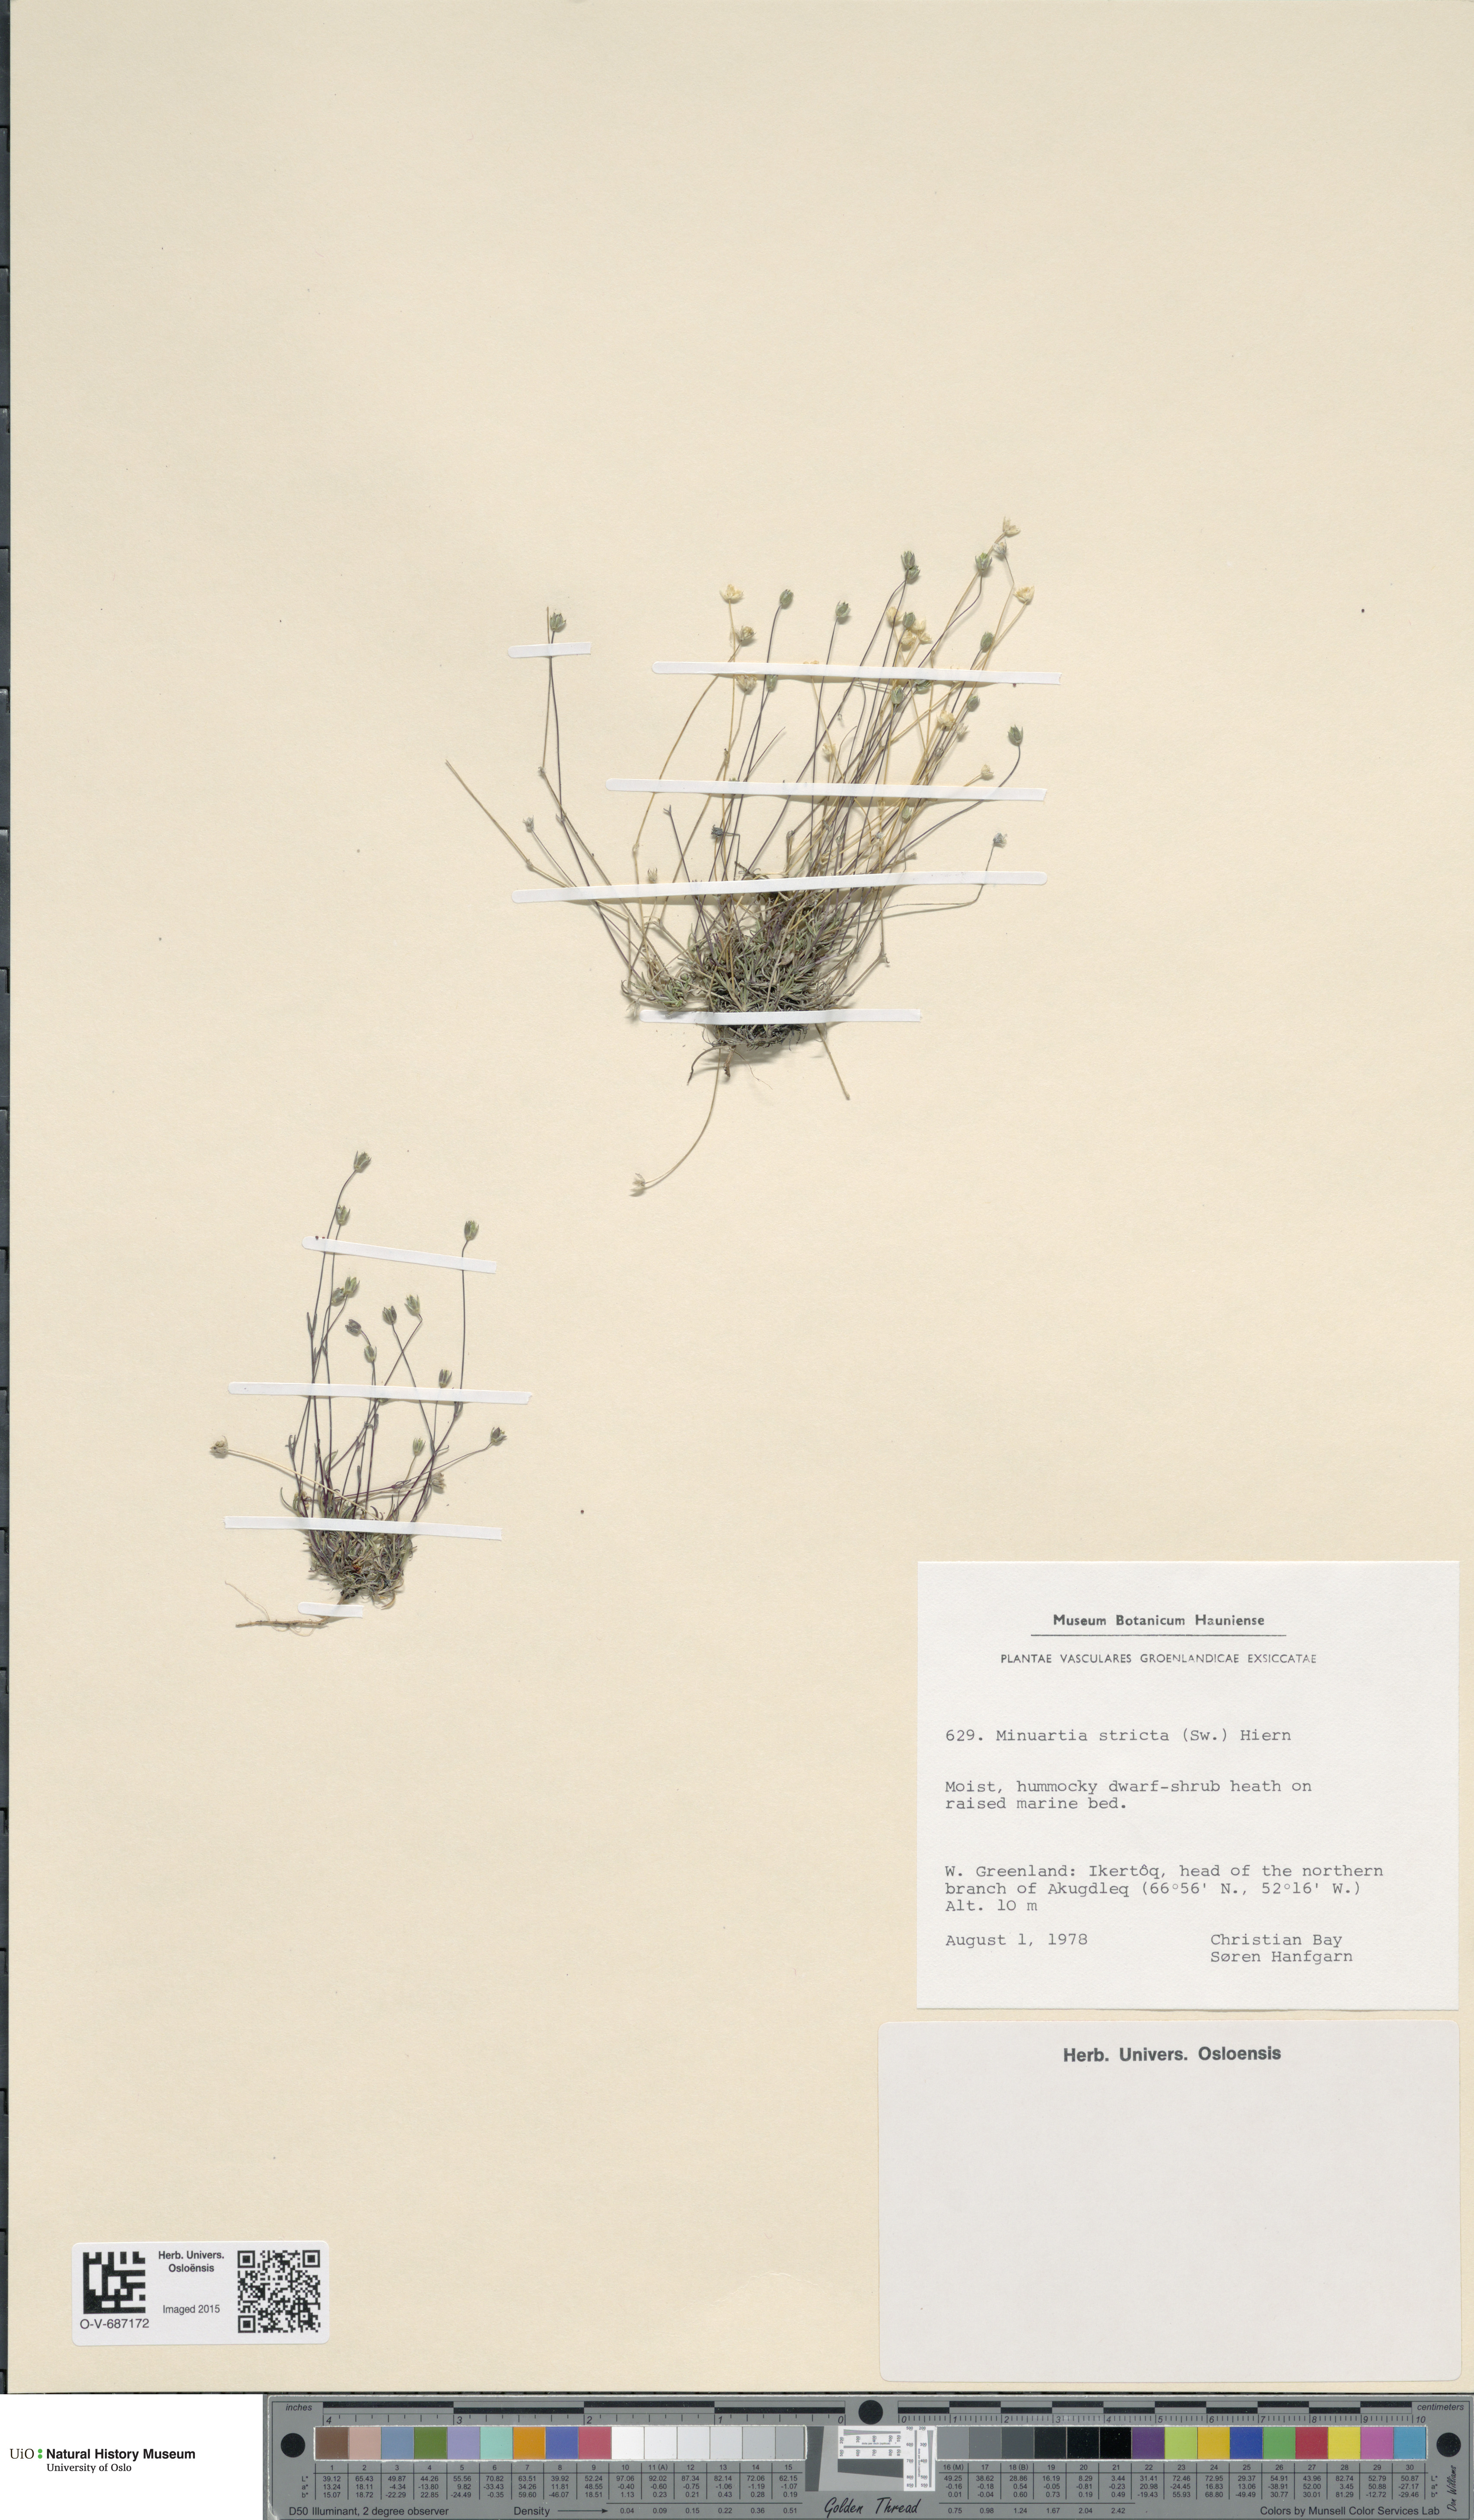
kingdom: Plantae
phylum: Tracheophyta
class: Magnoliopsida
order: Caryophyllales
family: Caryophyllaceae
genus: Sabulina
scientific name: Sabulina stricta
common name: Bog sandwort
